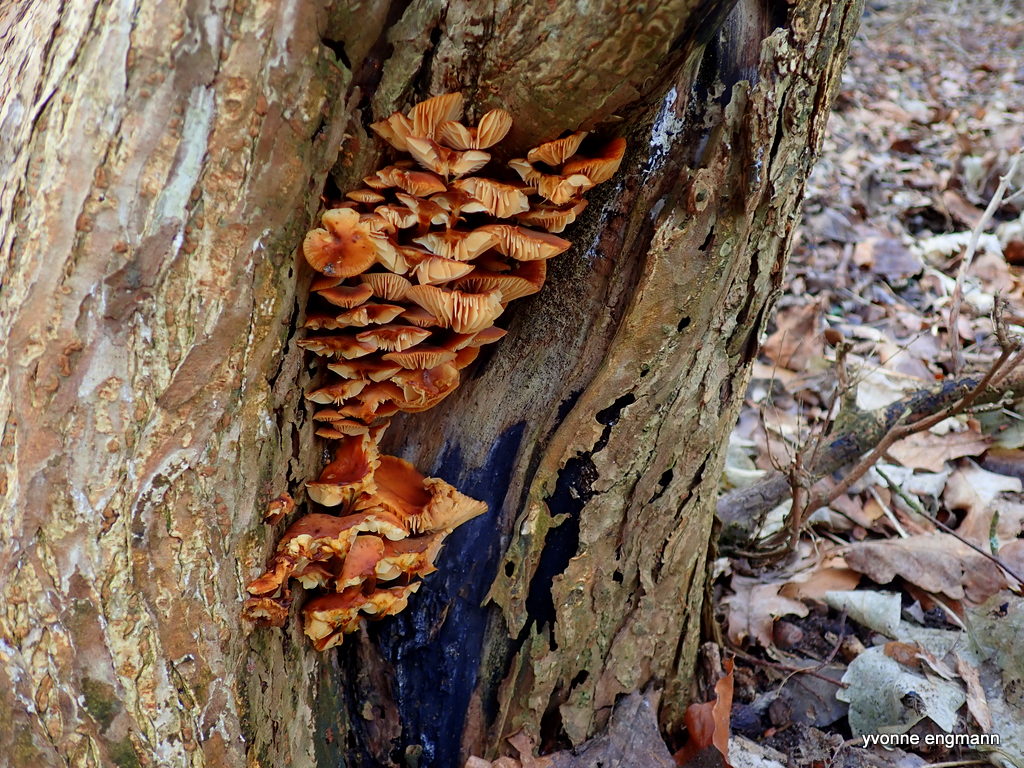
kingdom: Fungi
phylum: Basidiomycota
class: Agaricomycetes
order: Agaricales
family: Physalacriaceae
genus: Flammulina
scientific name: Flammulina velutipes
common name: gul fløjlsfod
